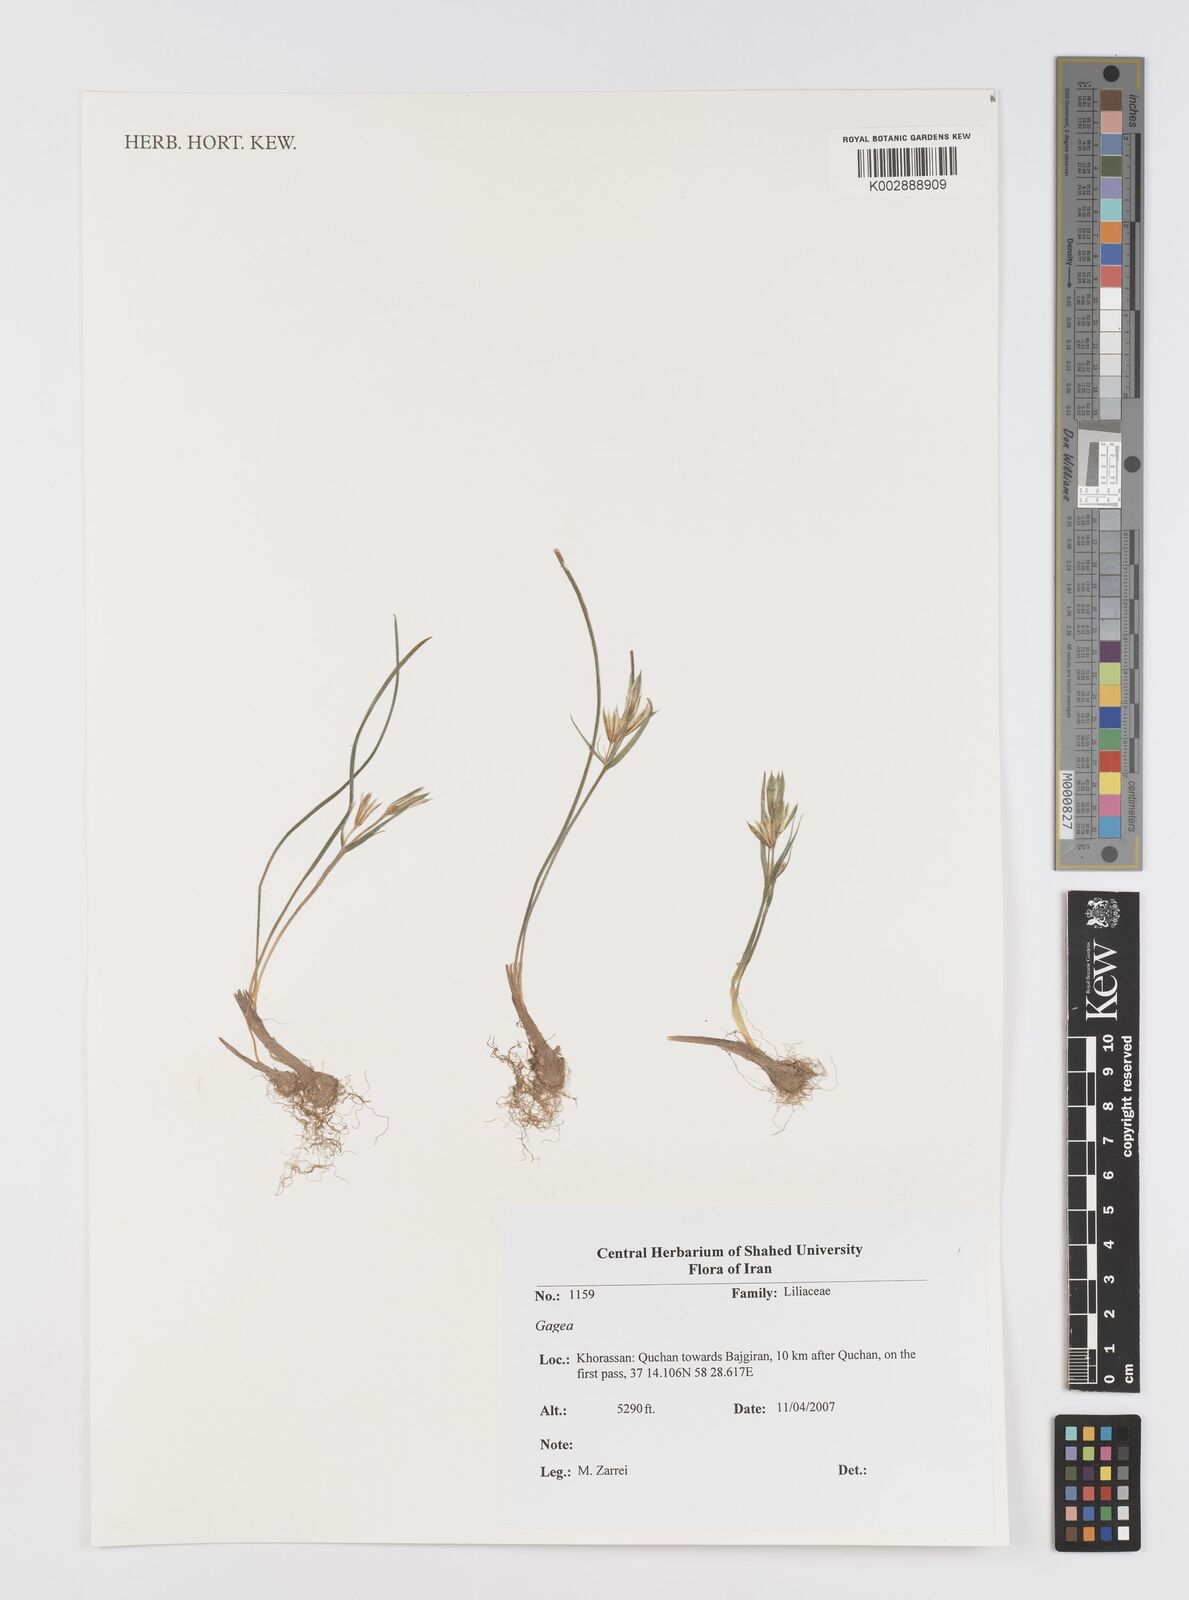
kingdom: Plantae
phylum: Tracheophyta
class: Liliopsida
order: Liliales
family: Liliaceae
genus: Gagea
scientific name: Gagea
